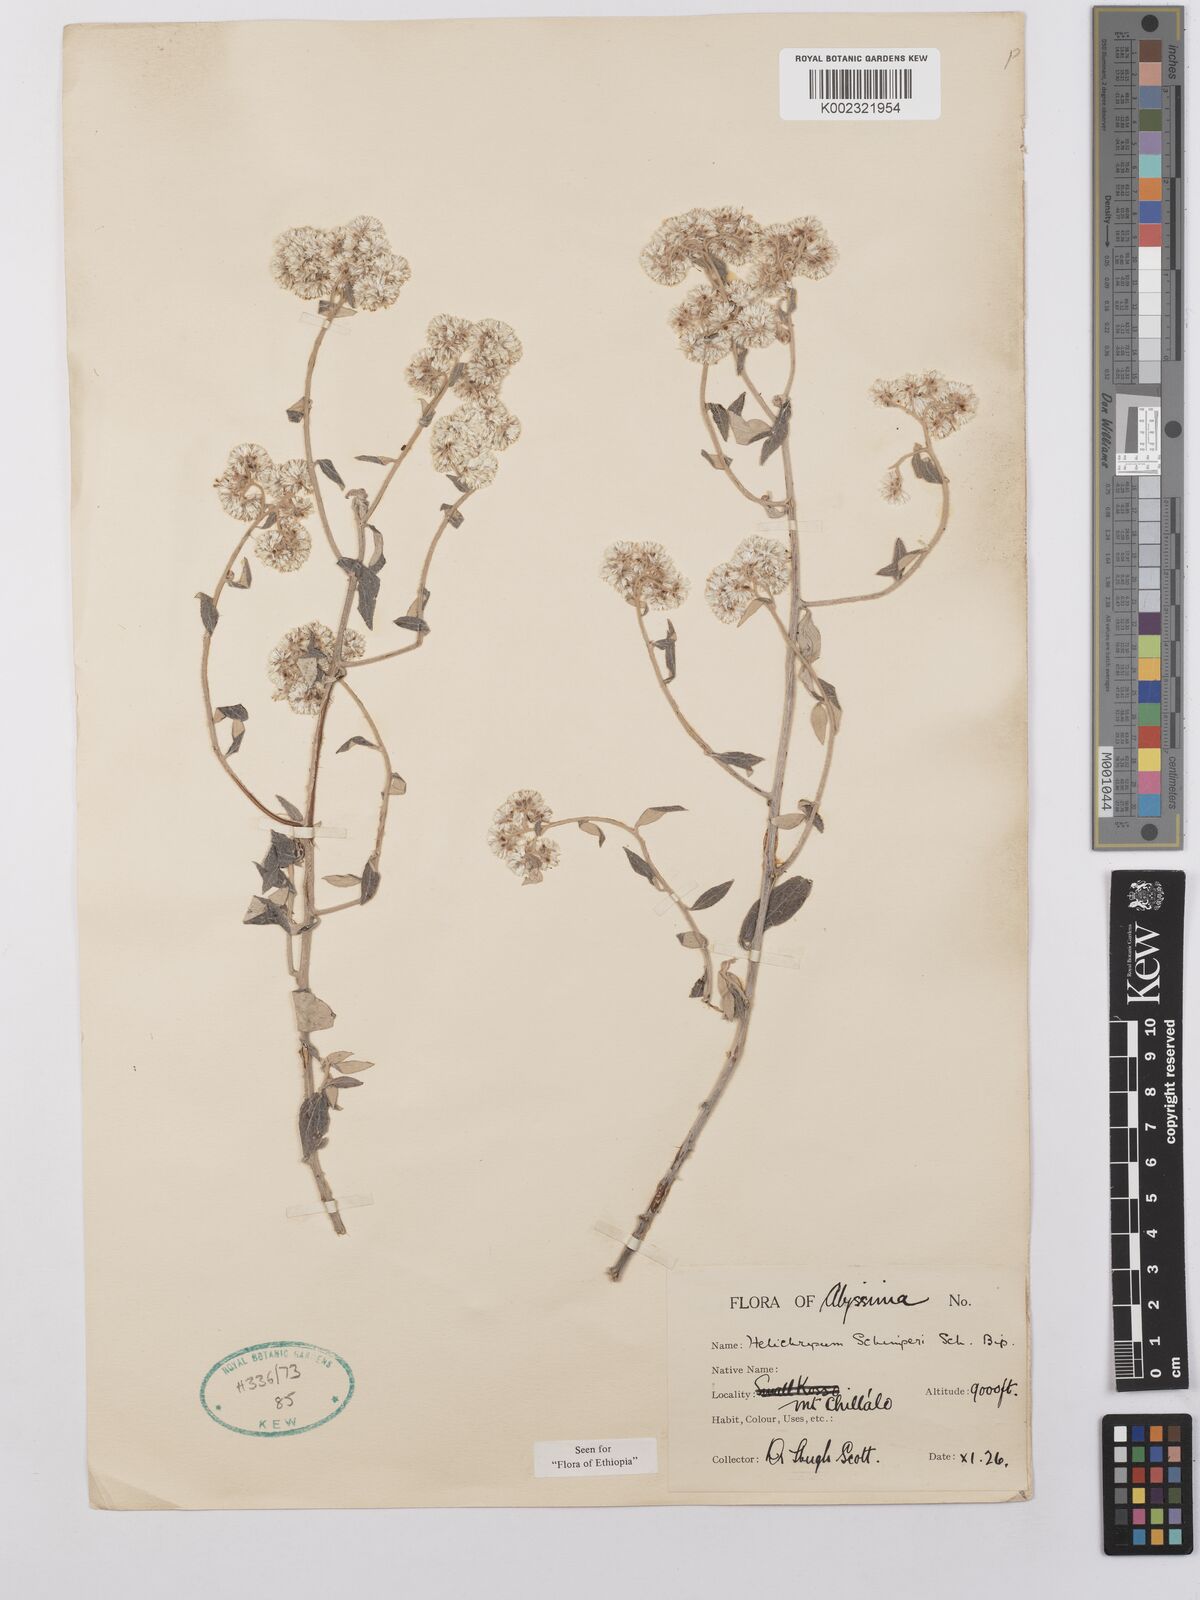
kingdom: Plantae
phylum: Tracheophyta
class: Magnoliopsida
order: Asterales
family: Asteraceae
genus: Helichrysum
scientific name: Helichrysum schimperi
